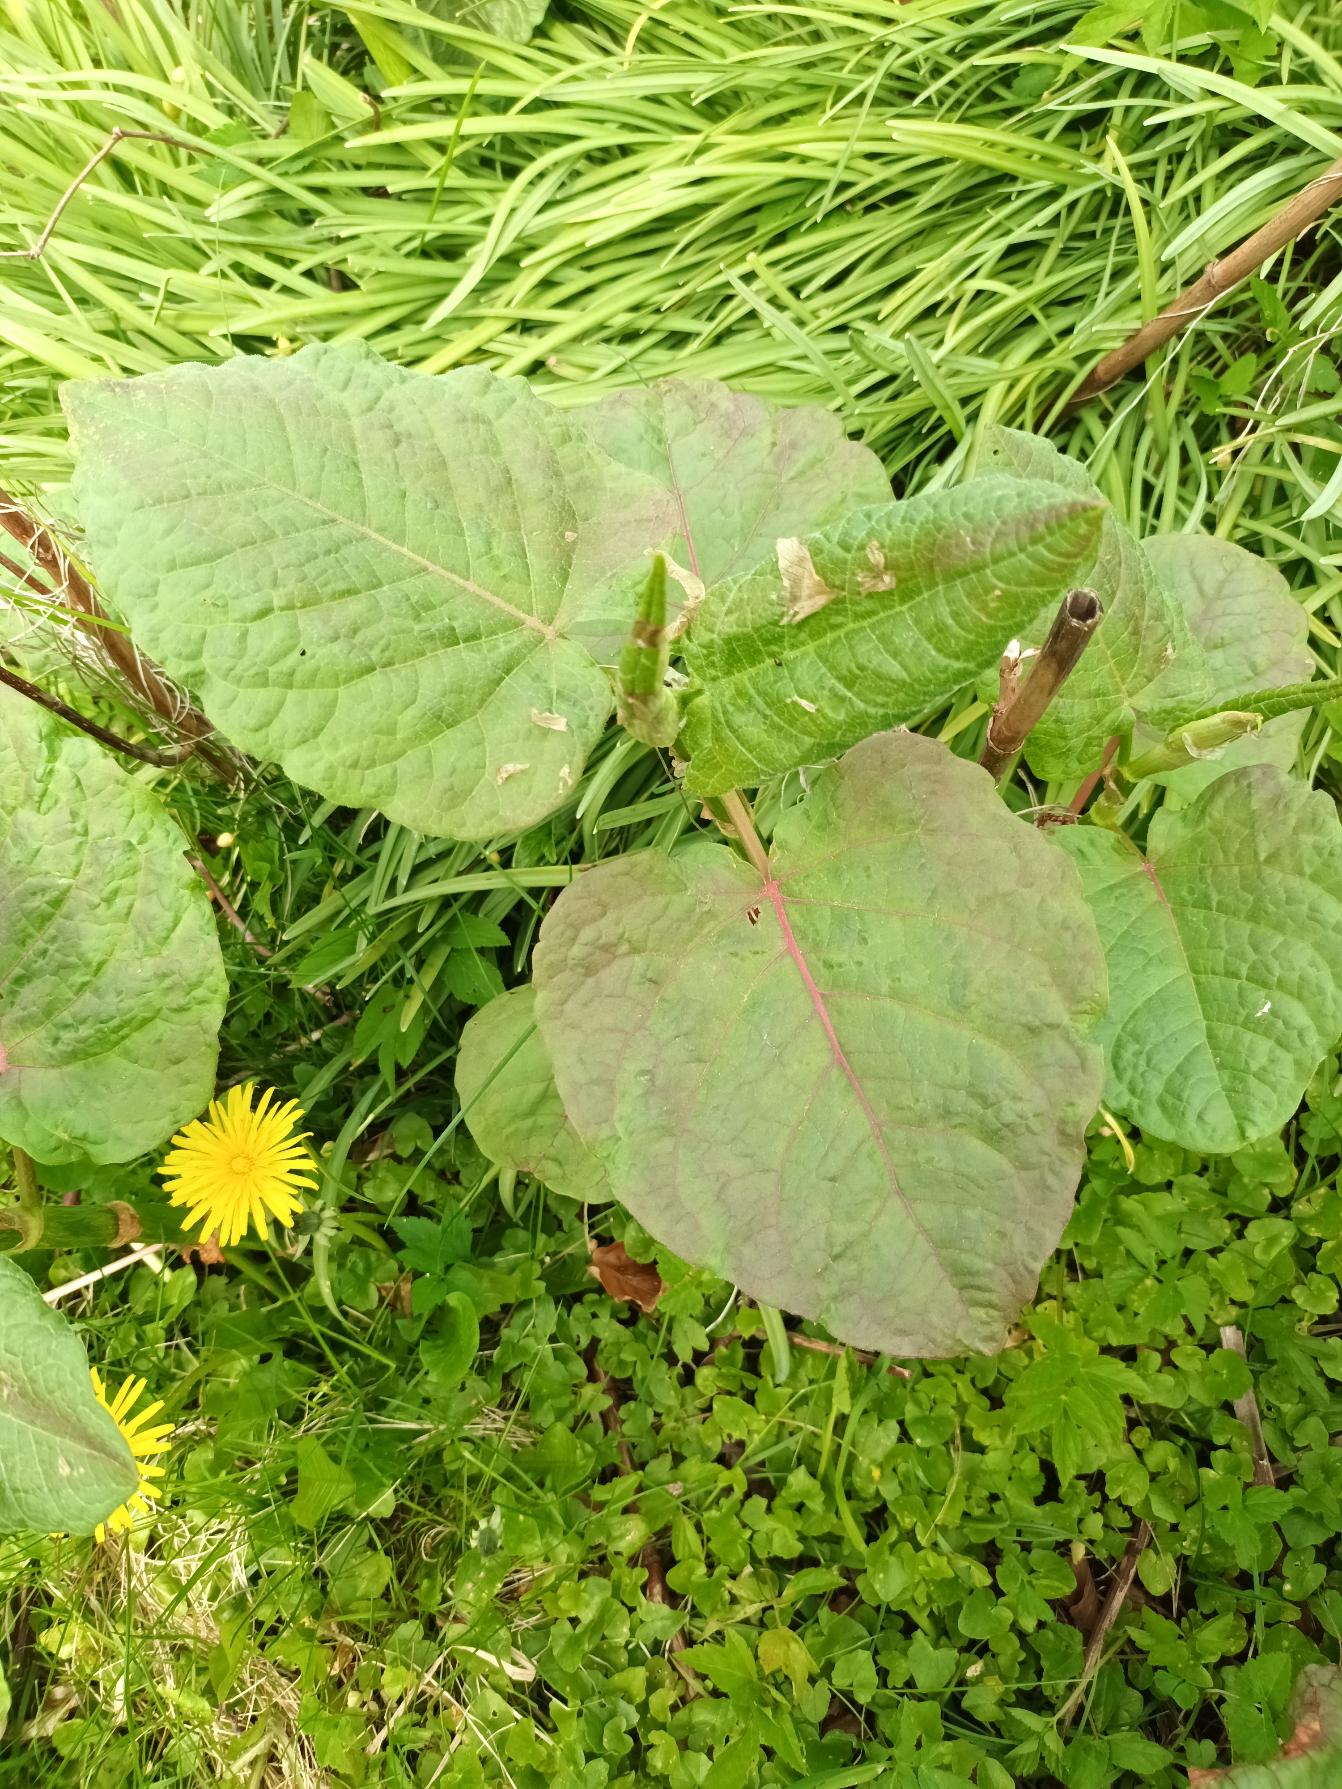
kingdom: Plantae
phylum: Tracheophyta
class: Magnoliopsida
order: Caryophyllales
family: Polygonaceae
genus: Reynoutria
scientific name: Reynoutria sachalinensis
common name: Kæmpe-pileurt
